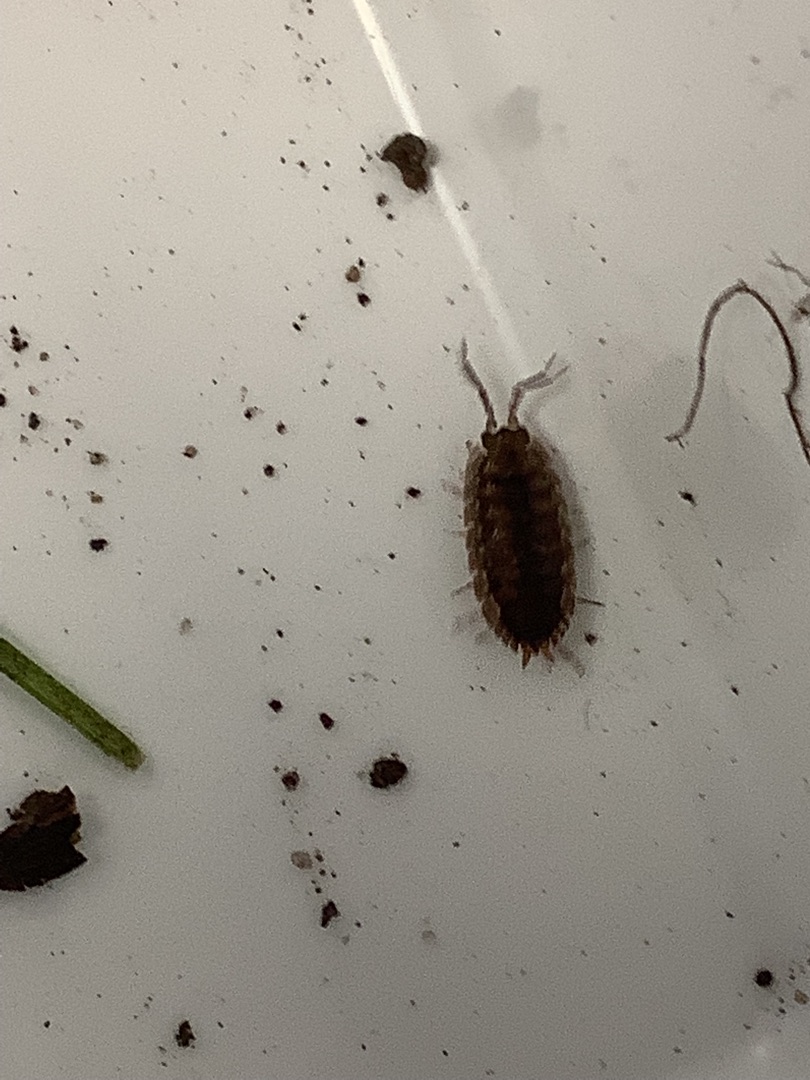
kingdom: Animalia
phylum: Arthropoda
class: Malacostraca
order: Isopoda
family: Oniscidae
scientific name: Oniscidae
